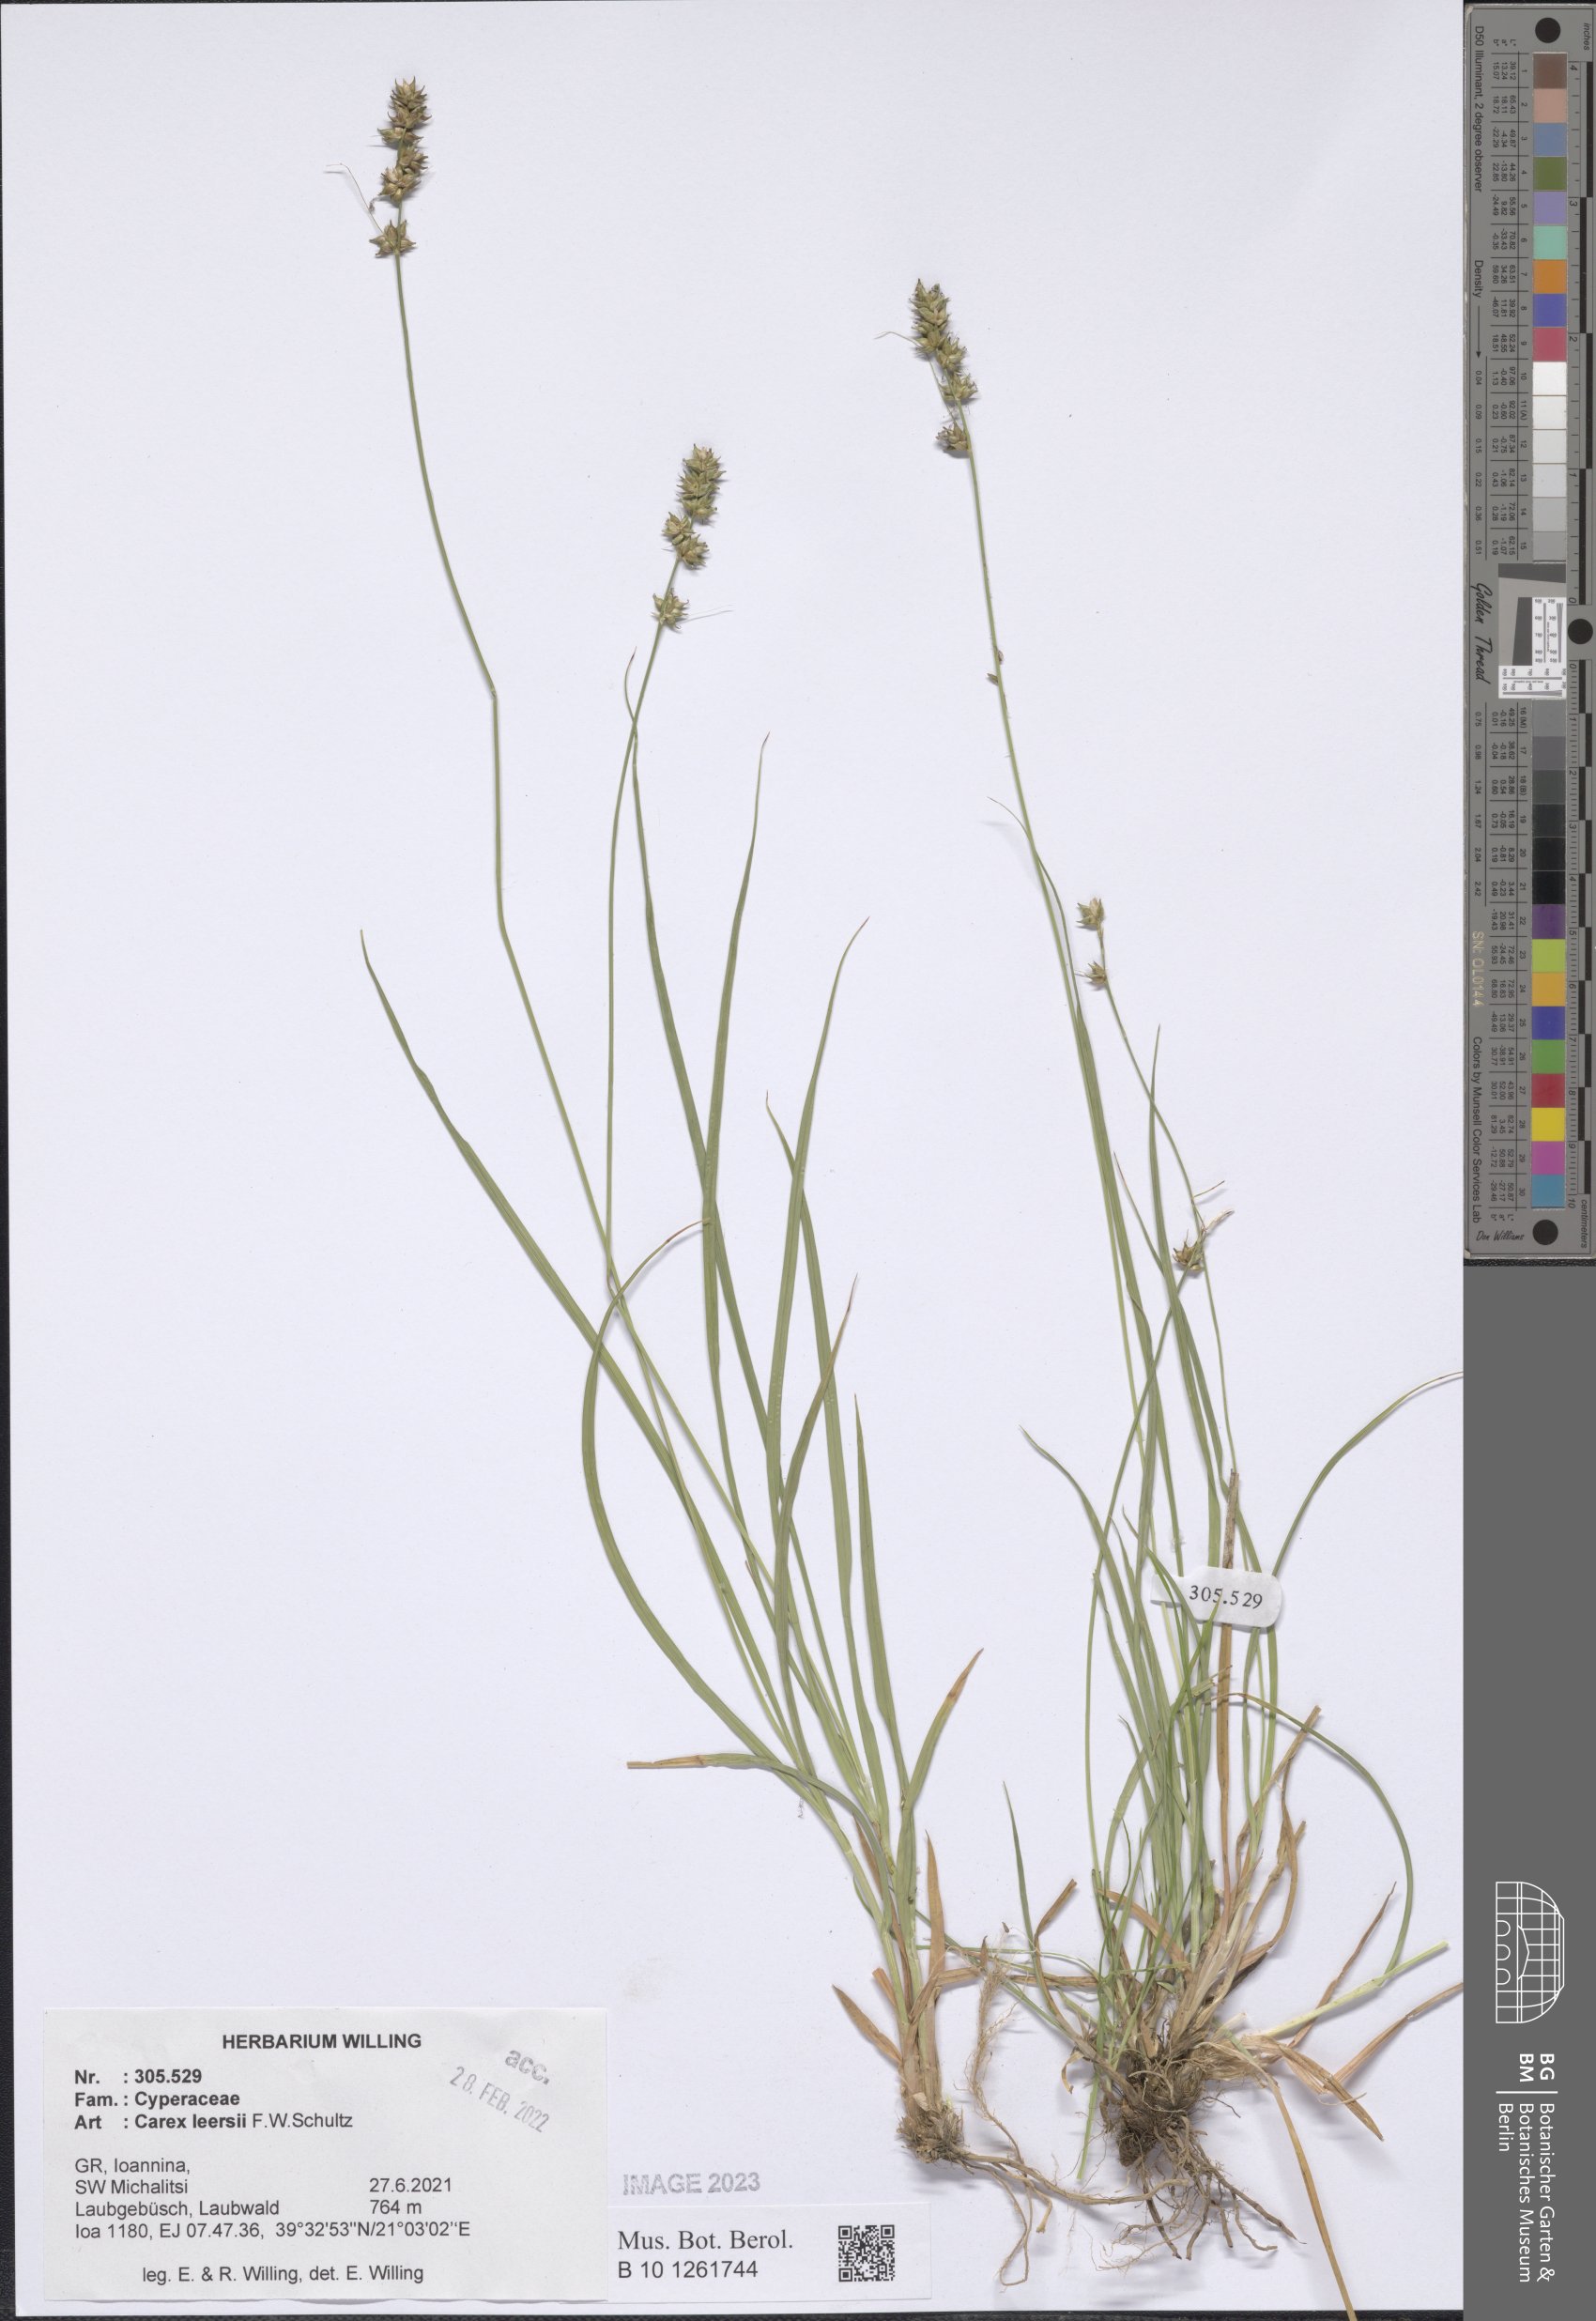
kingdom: Plantae
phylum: Tracheophyta
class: Liliopsida
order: Poales
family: Cyperaceae
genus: Carex
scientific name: Carex leersii
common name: Leers' sedge
